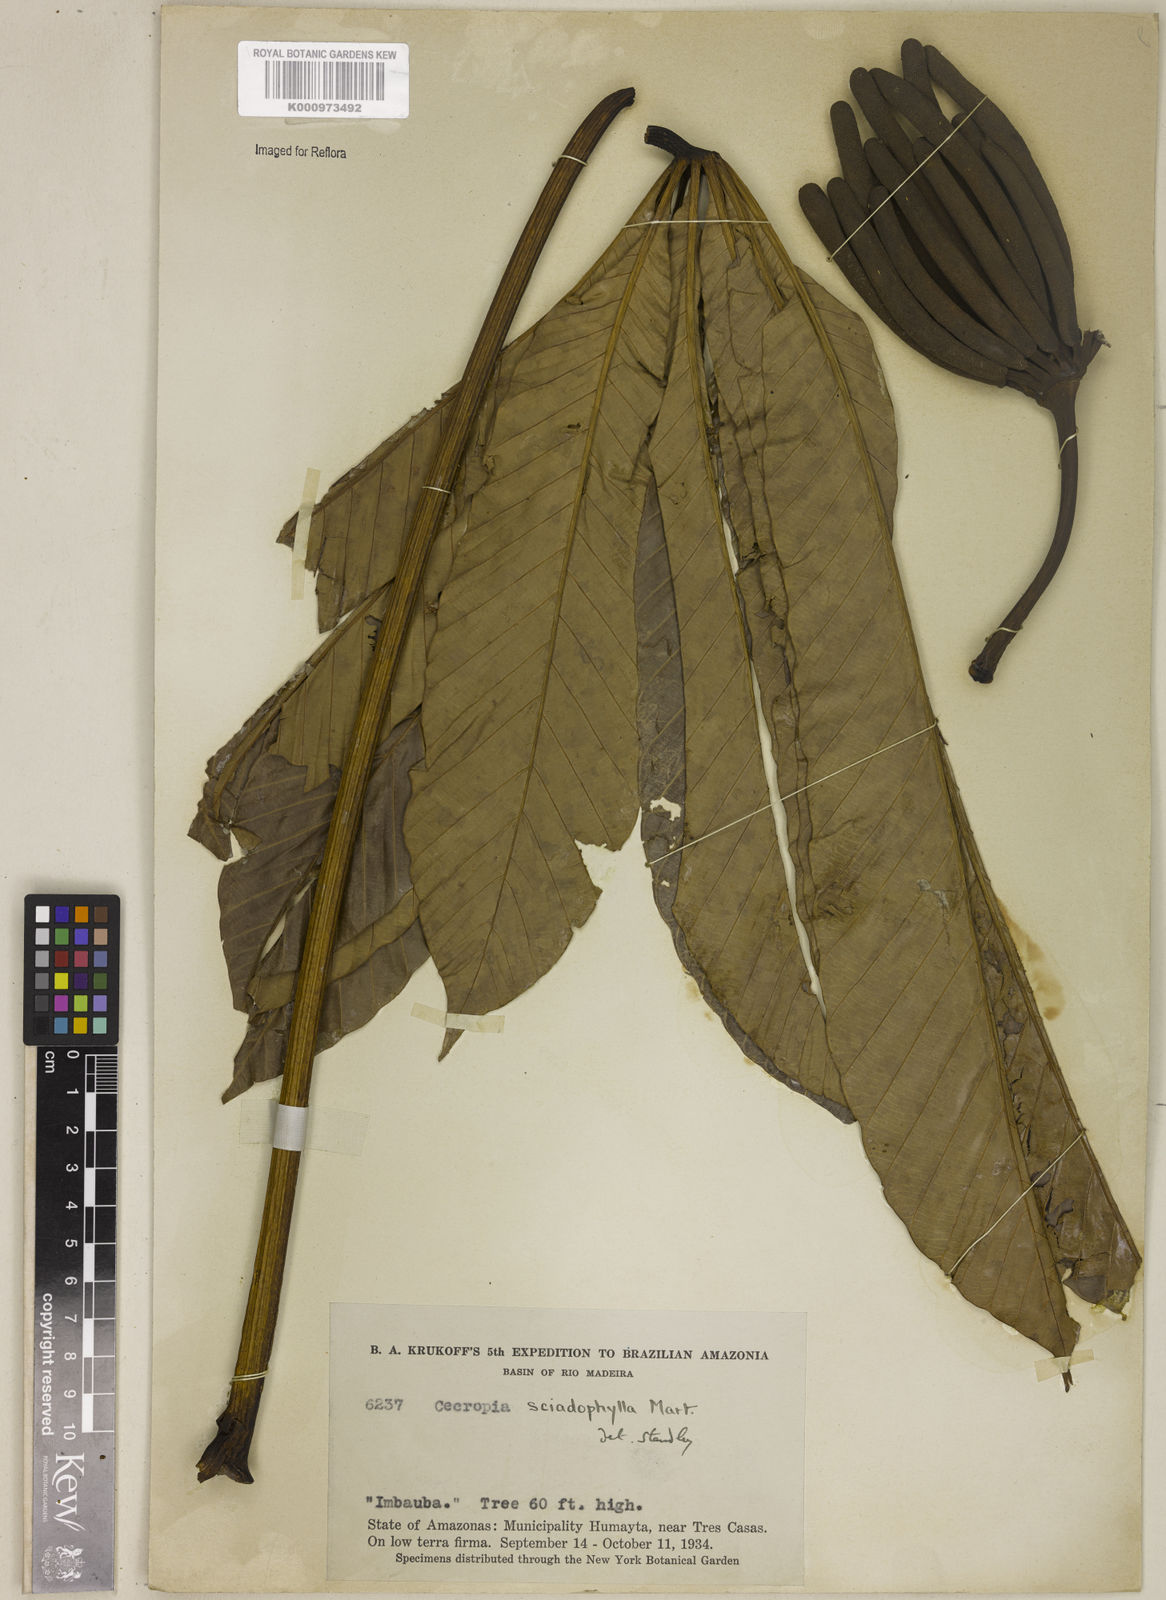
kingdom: Plantae
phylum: Tracheophyta
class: Magnoliopsida
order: Rosales
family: Urticaceae
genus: Cecropia
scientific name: Cecropia sciadophylla
